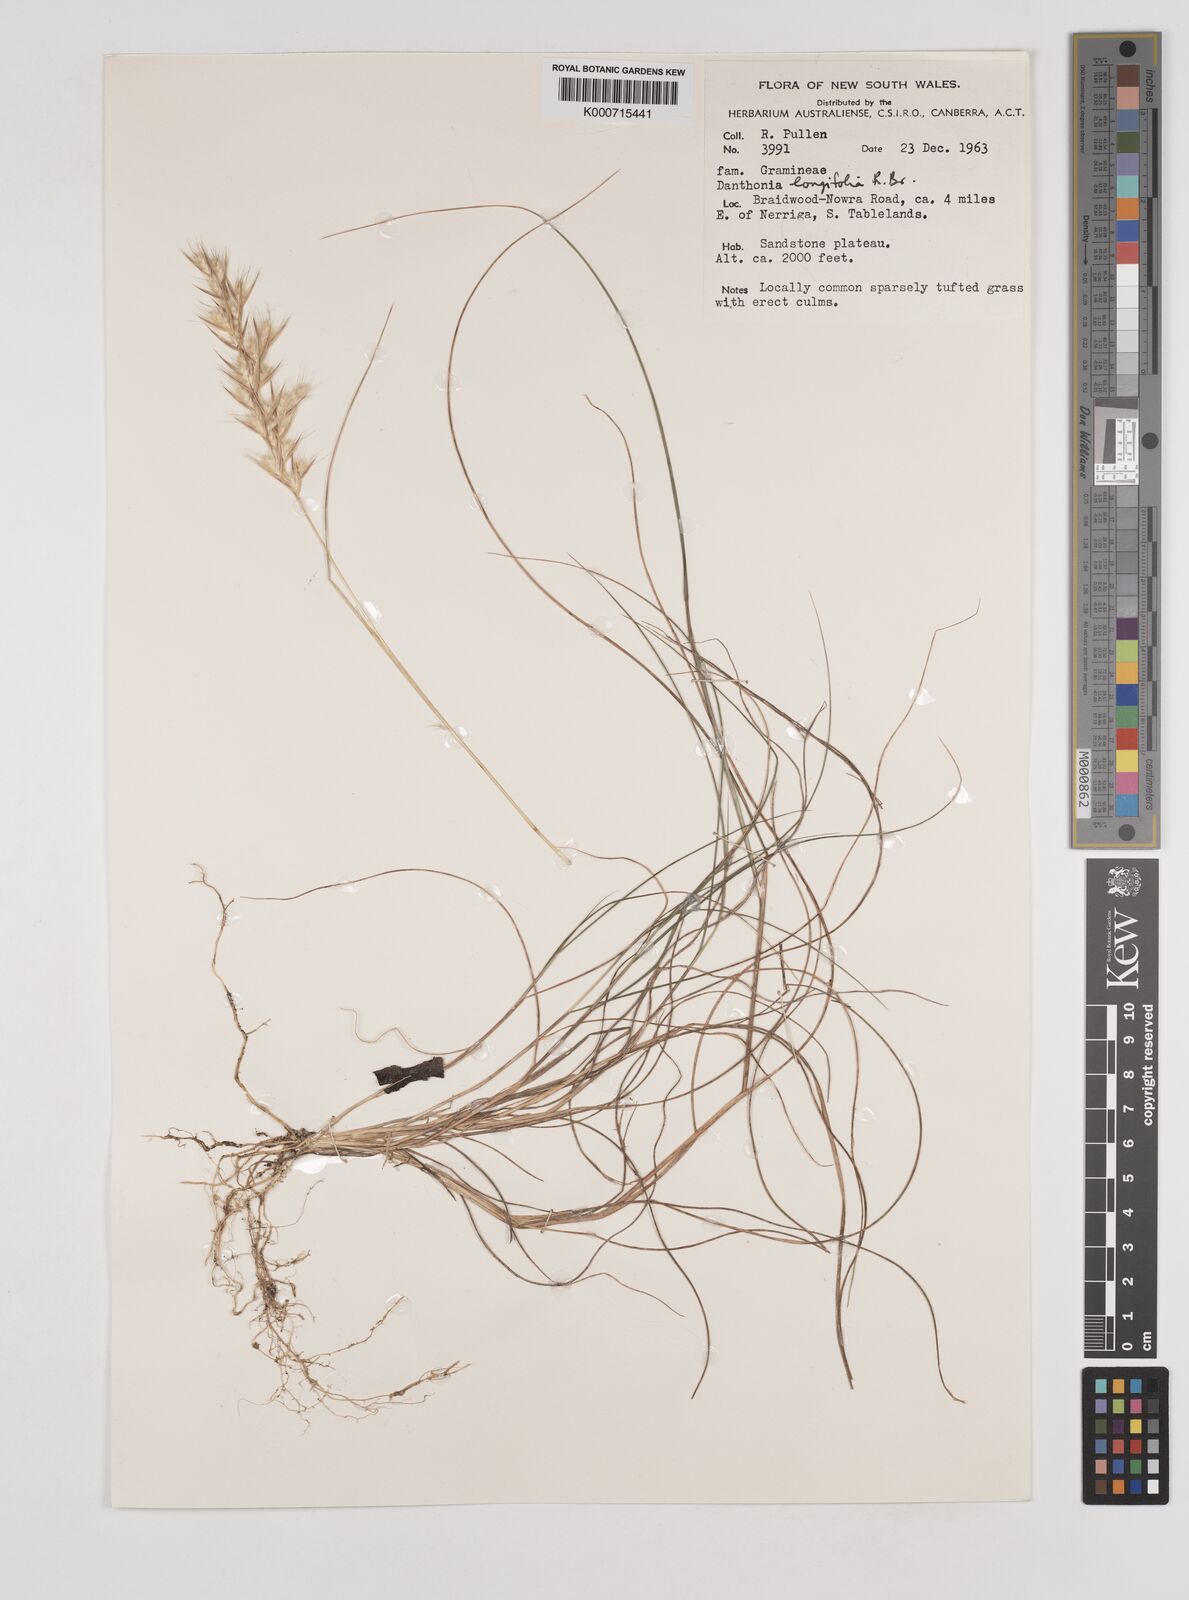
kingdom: Plantae
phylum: Tracheophyta
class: Liliopsida
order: Poales
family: Poaceae
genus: Rytidosperma
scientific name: Rytidosperma longifolium
